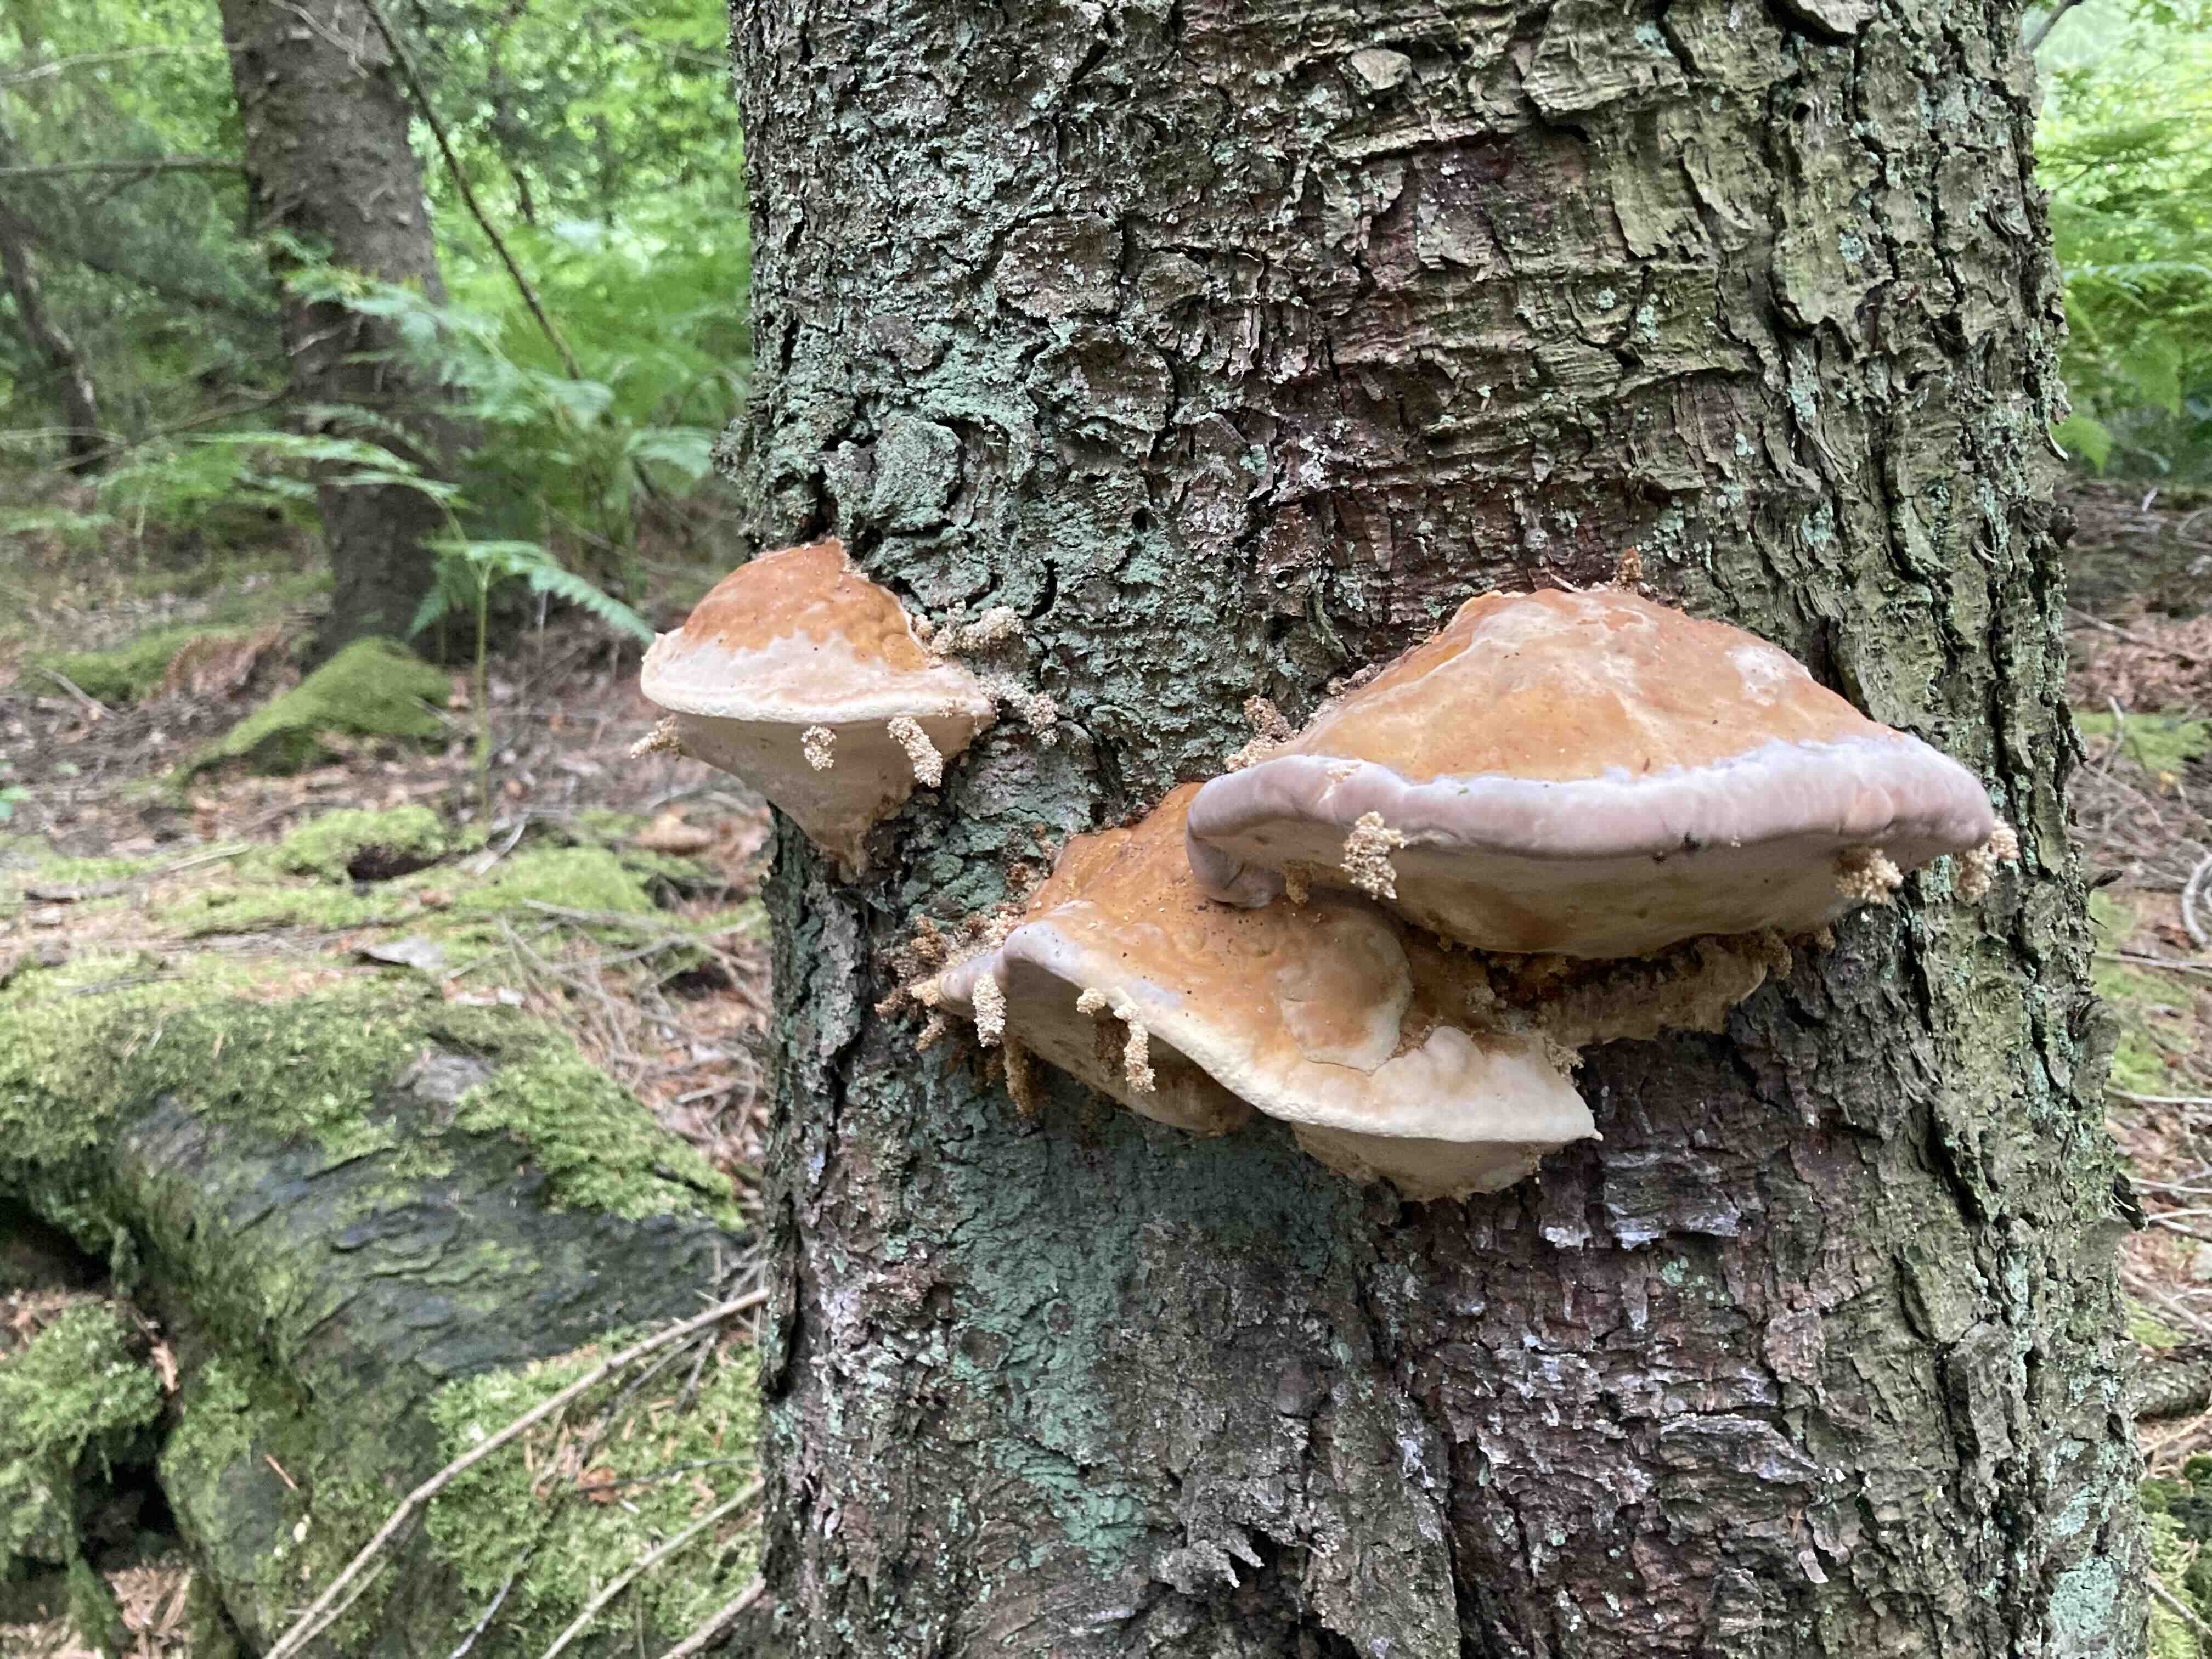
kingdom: Fungi
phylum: Basidiomycota
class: Agaricomycetes
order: Polyporales
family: Fomitopsidaceae
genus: Fomitopsis
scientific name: Fomitopsis pinicola
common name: randbæltet hovporesvamp
